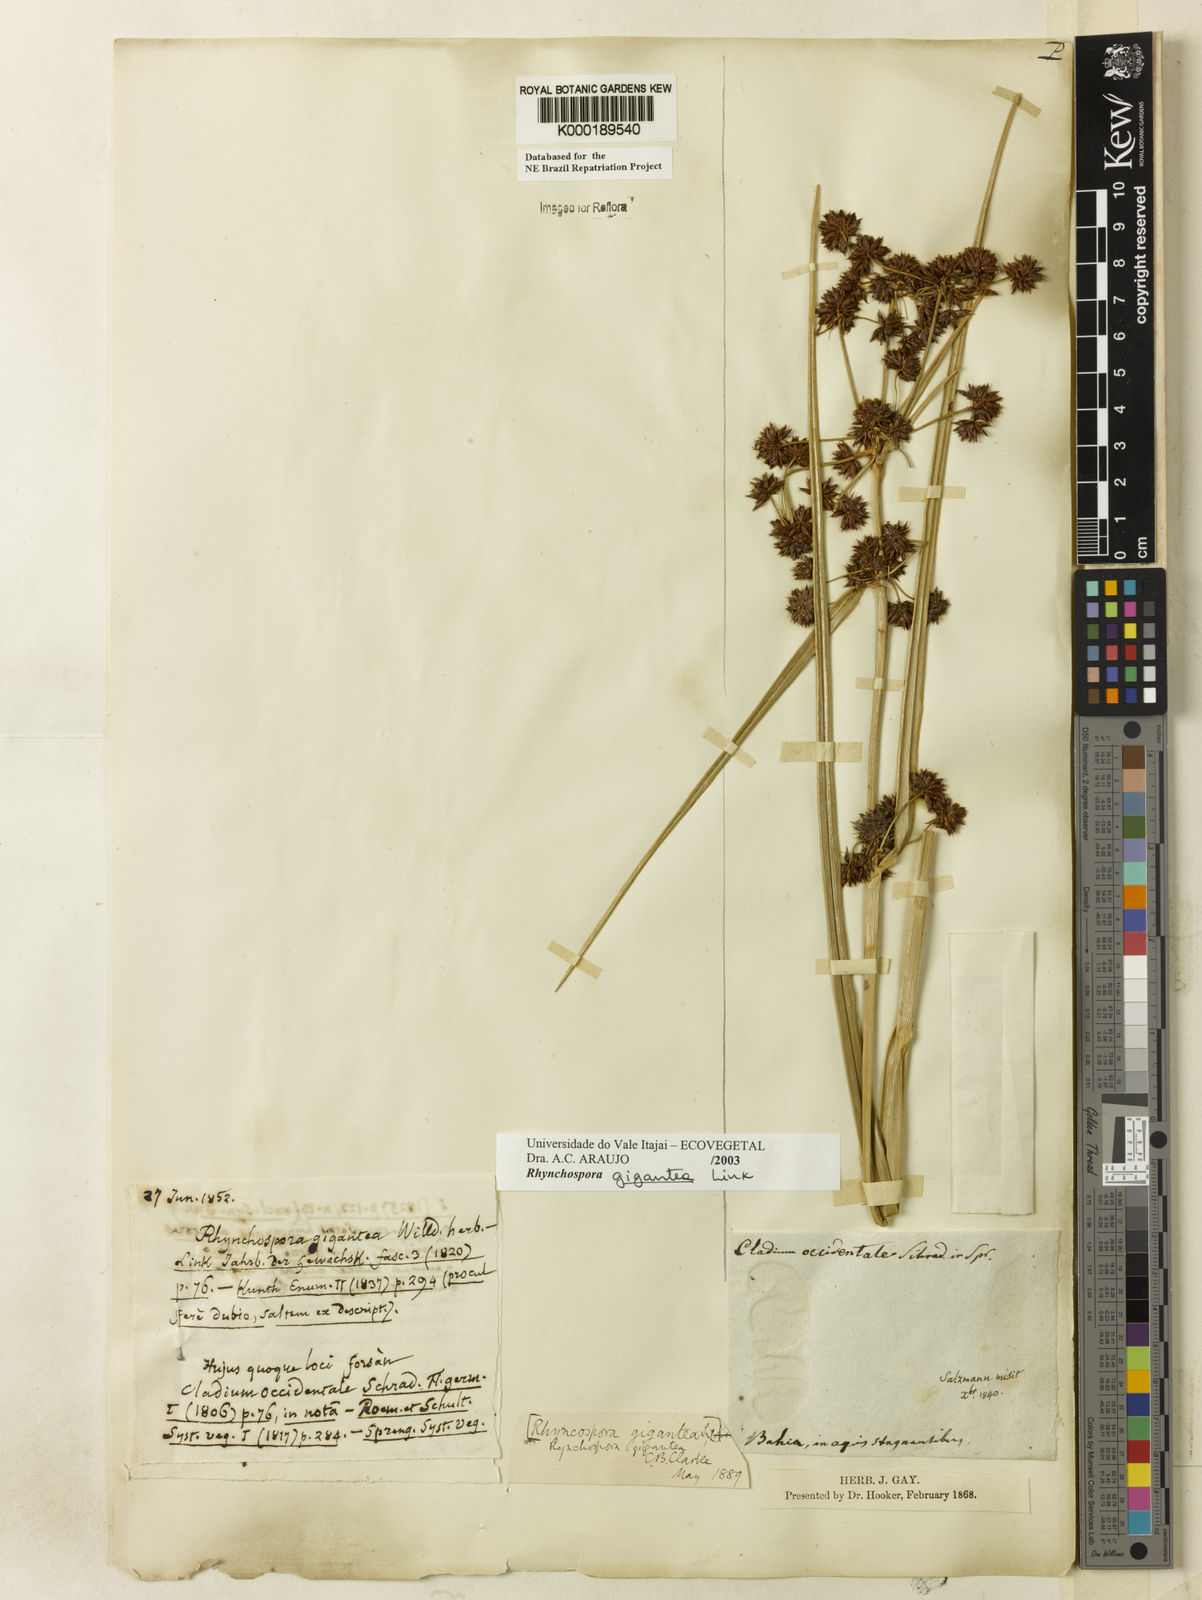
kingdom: Plantae
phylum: Tracheophyta
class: Liliopsida
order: Poales
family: Cyperaceae
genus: Rhynchospora
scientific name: Rhynchospora gigantea
